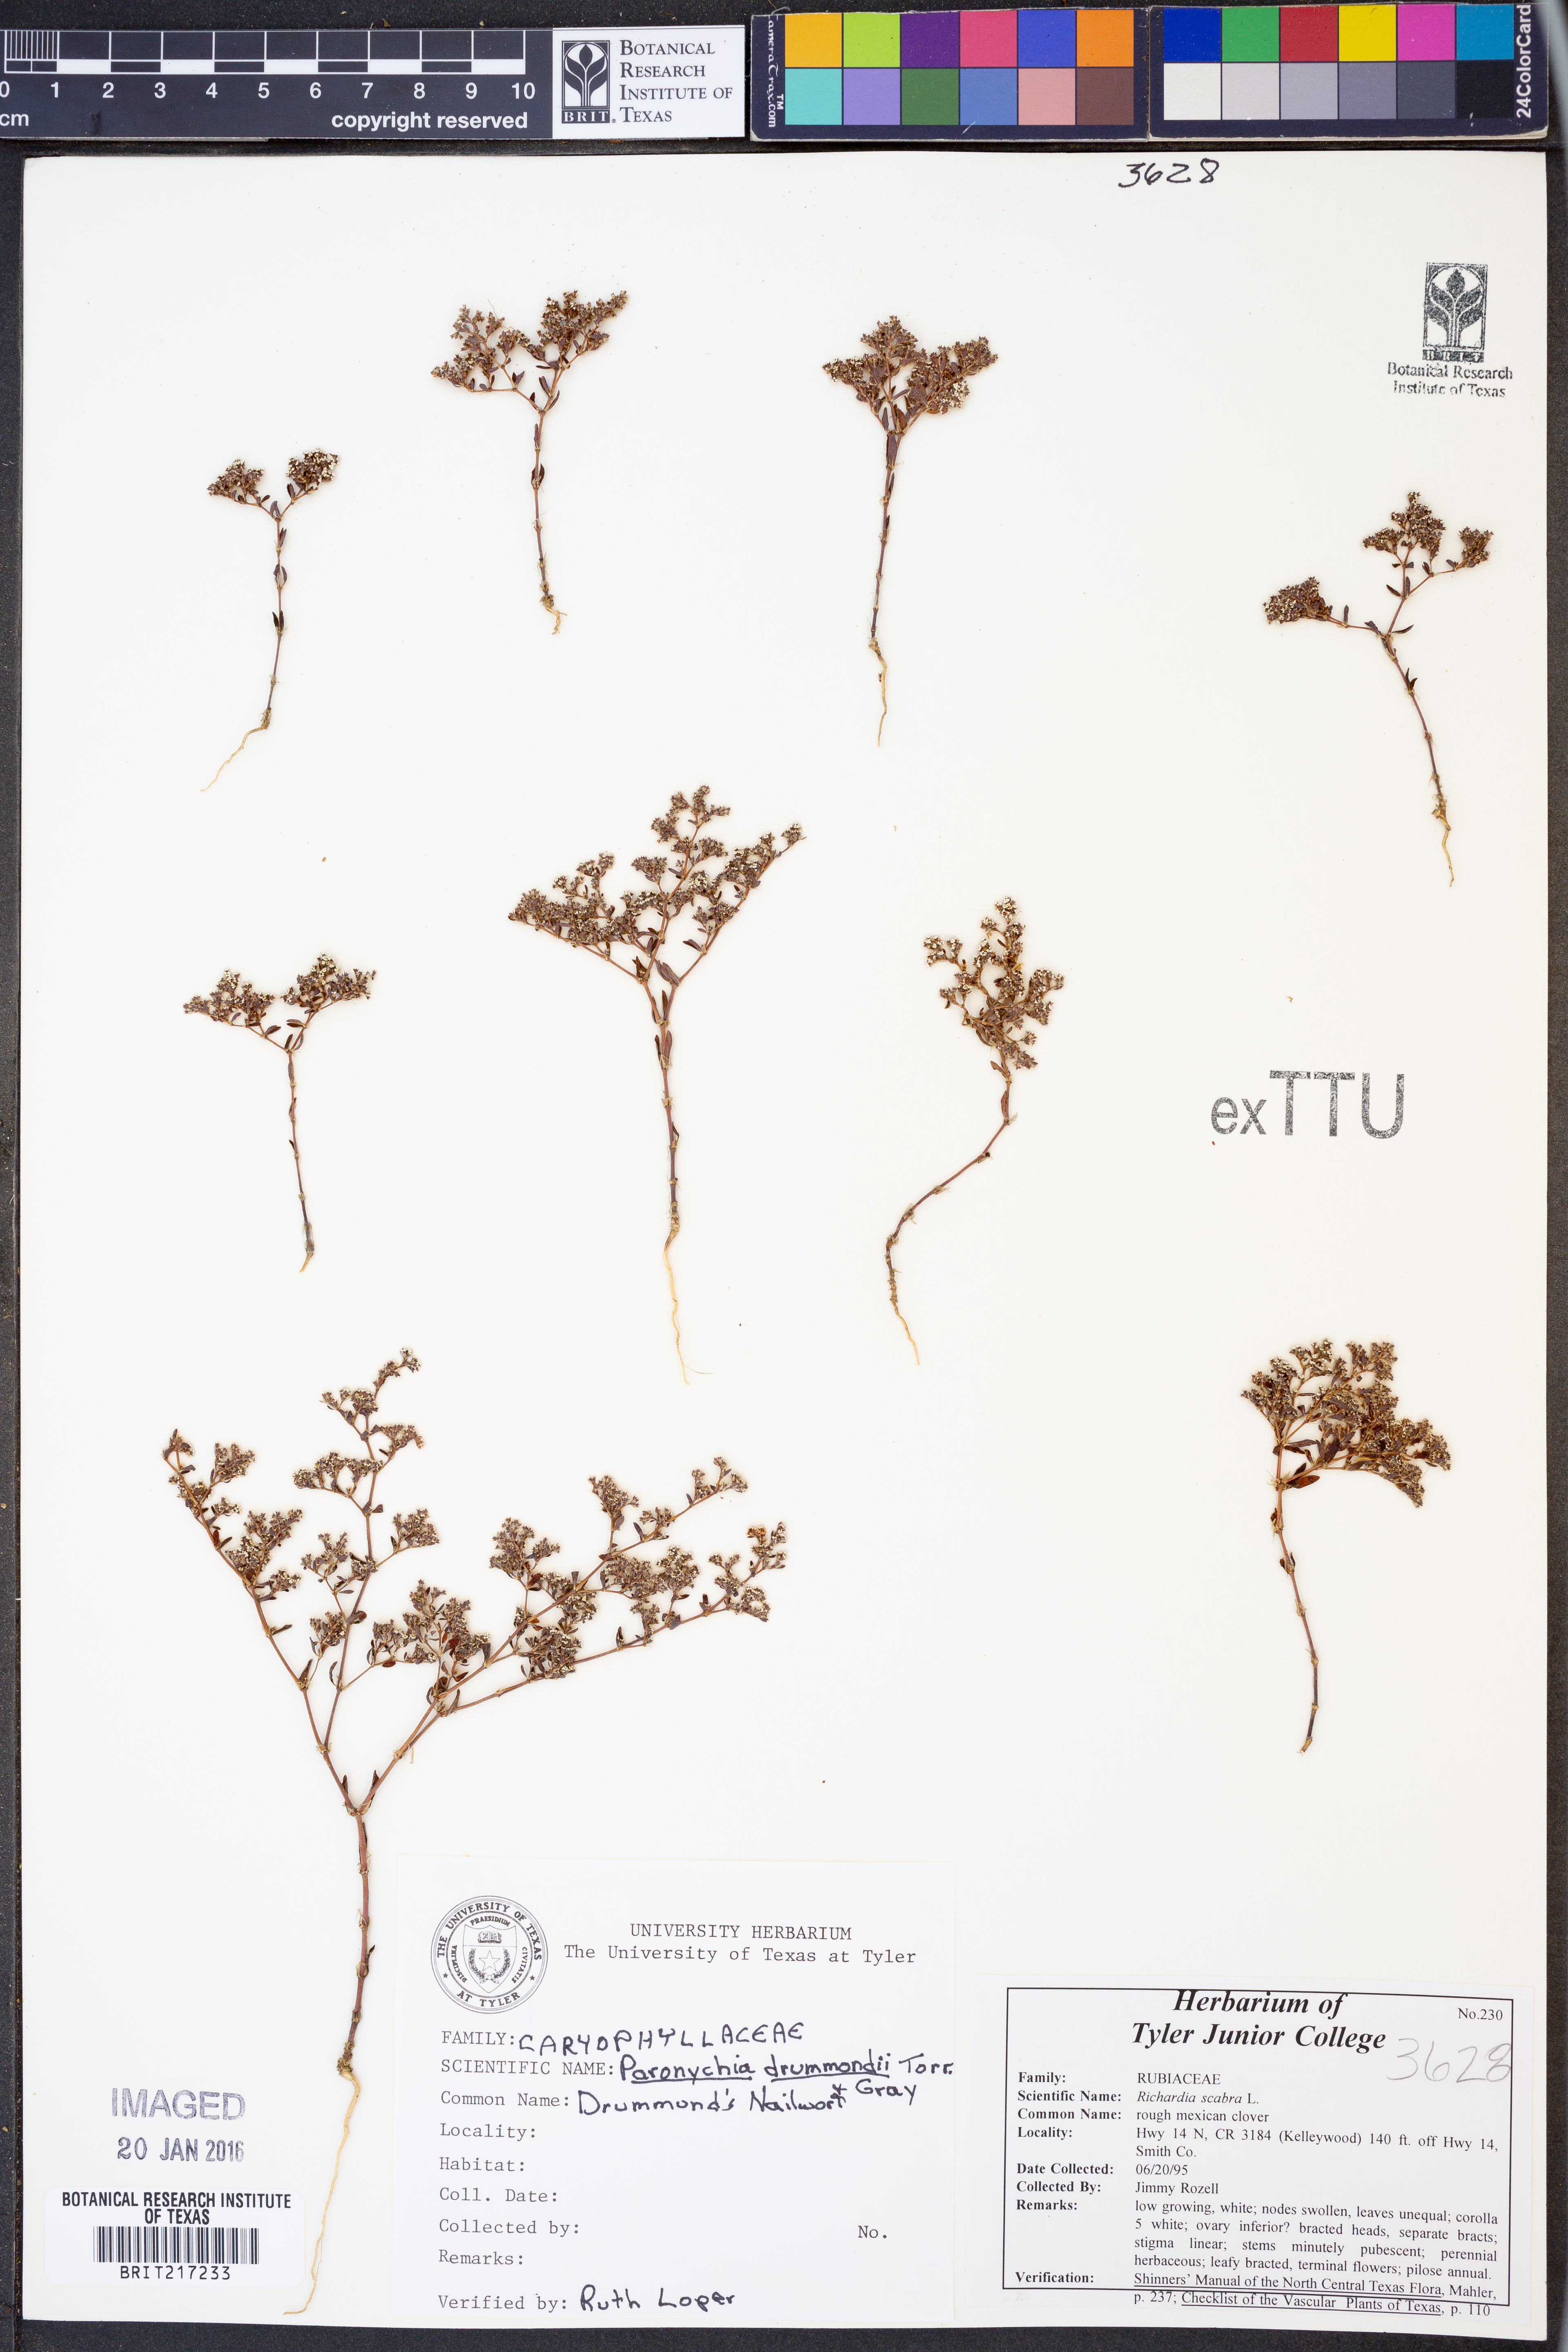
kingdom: Plantae
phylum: Tracheophyta
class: Magnoliopsida
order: Caryophyllales
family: Caryophyllaceae
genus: Paronychia
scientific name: Paronychia drummondii
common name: Drummond's nailwort
